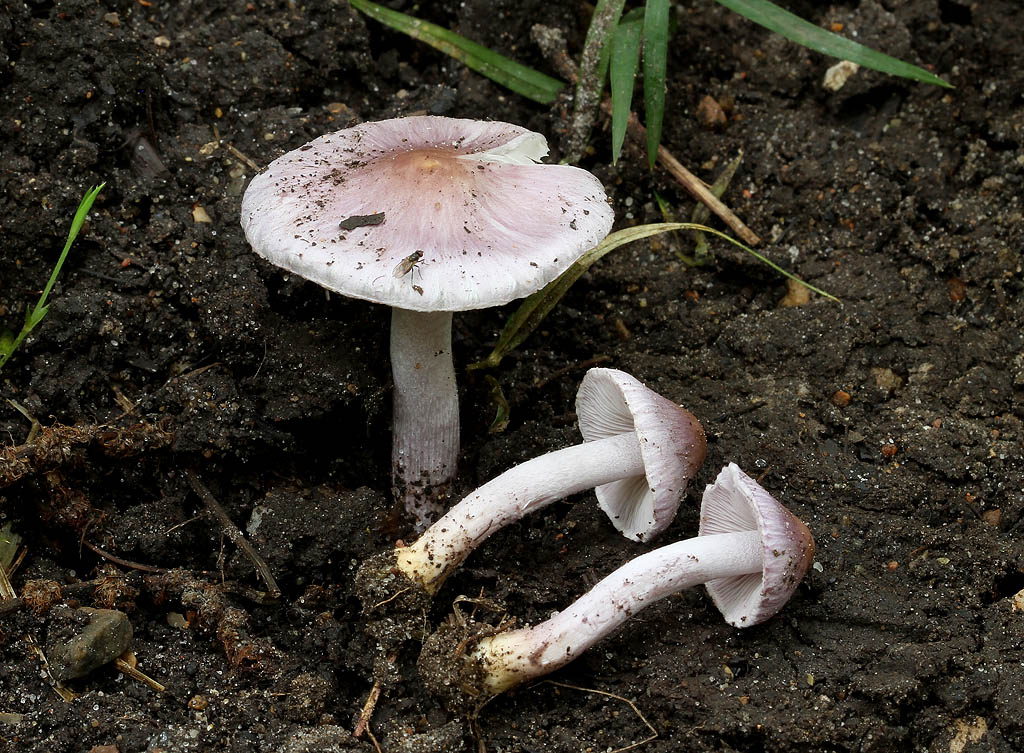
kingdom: Fungi
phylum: Basidiomycota
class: Agaricomycetes
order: Agaricales
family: Inocybaceae
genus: Inocybe
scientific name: Inocybe geophylla
